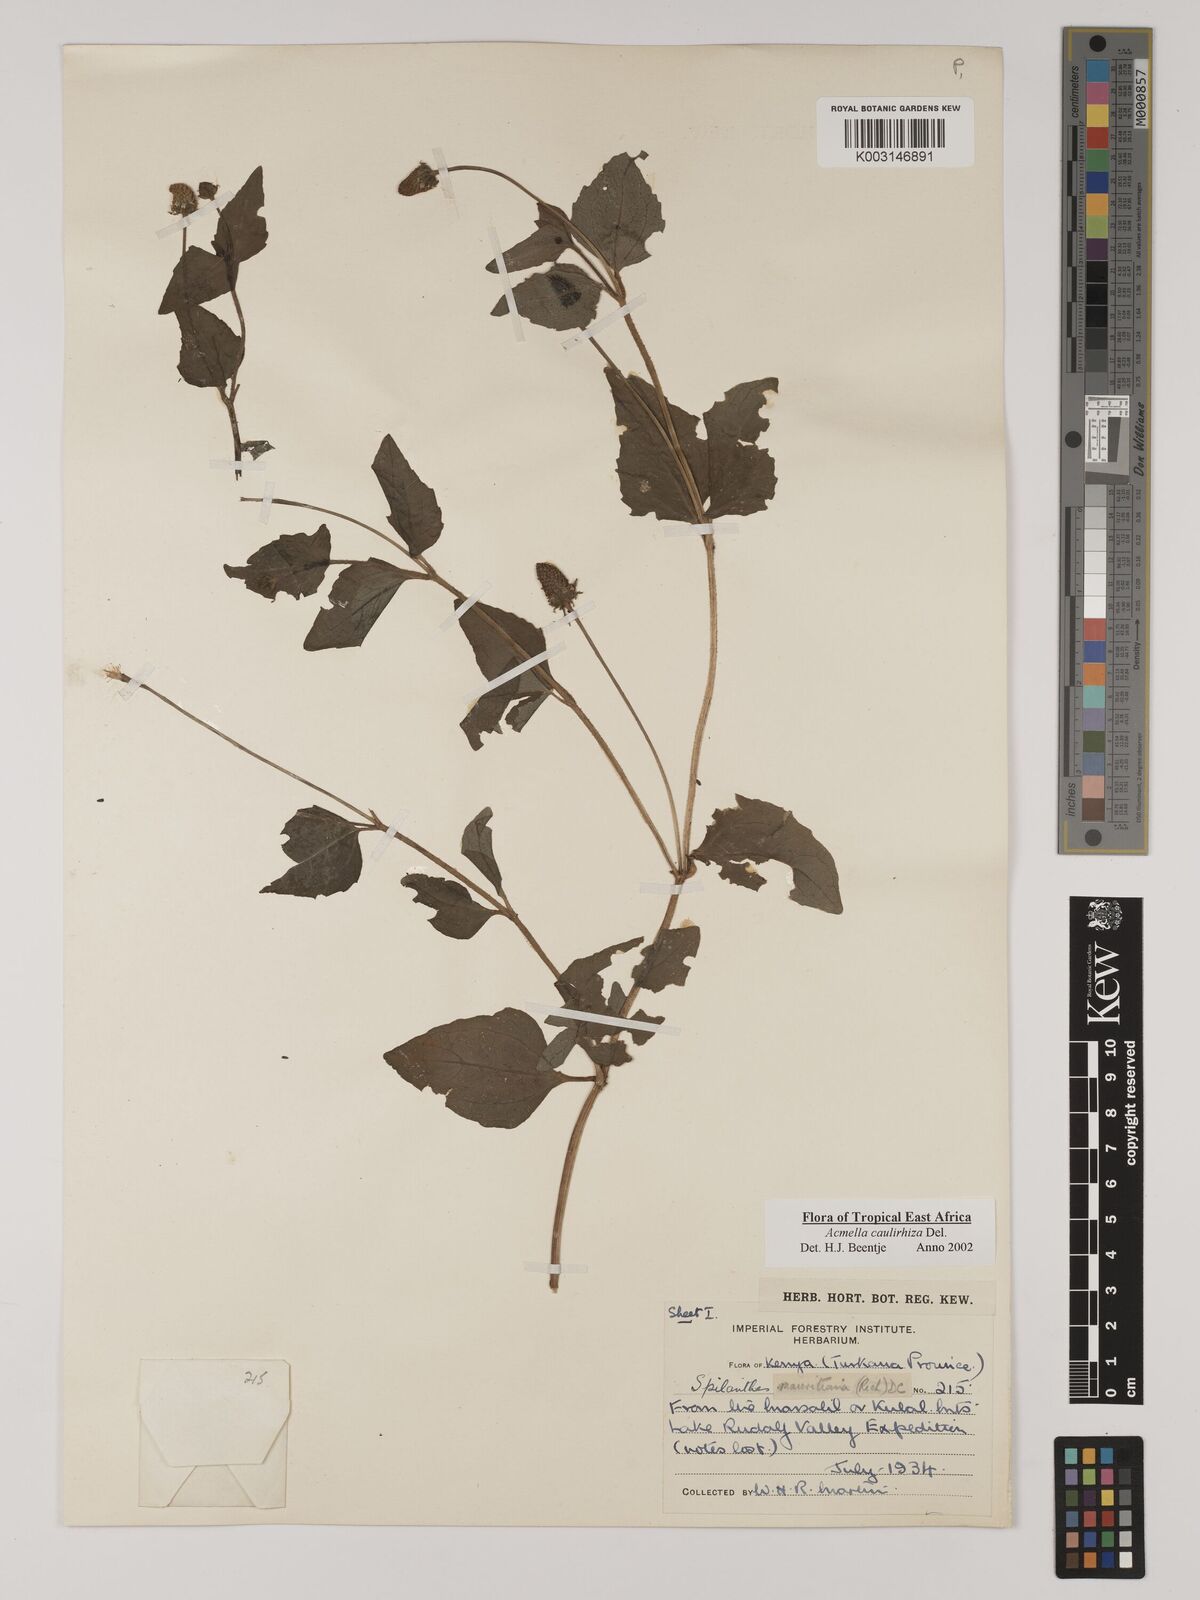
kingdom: Plantae
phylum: Tracheophyta
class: Magnoliopsida
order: Asterales
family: Asteraceae
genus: Acmella
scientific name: Acmella caulirhiza
